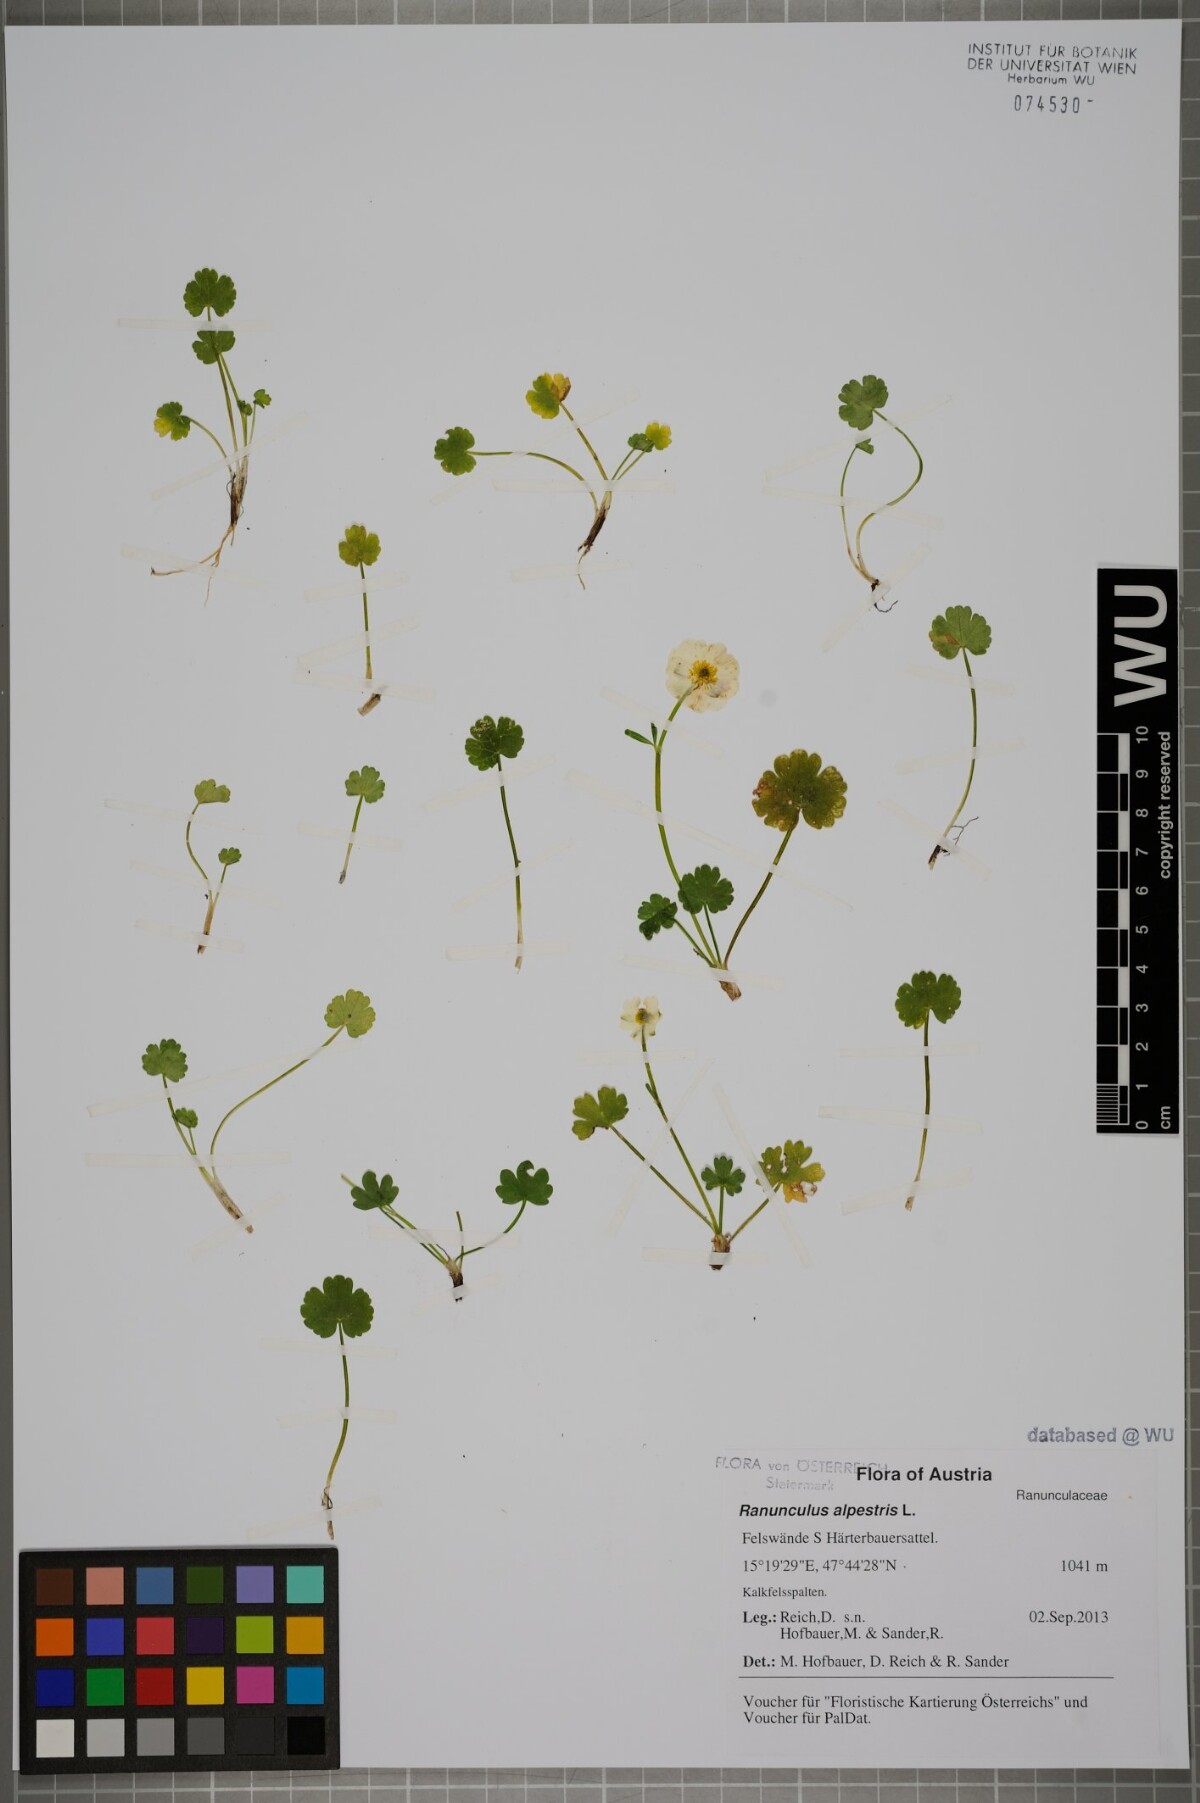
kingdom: Plantae
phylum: Tracheophyta
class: Magnoliopsida
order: Ranunculales
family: Ranunculaceae
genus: Ranunculus
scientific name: Ranunculus alpestris
